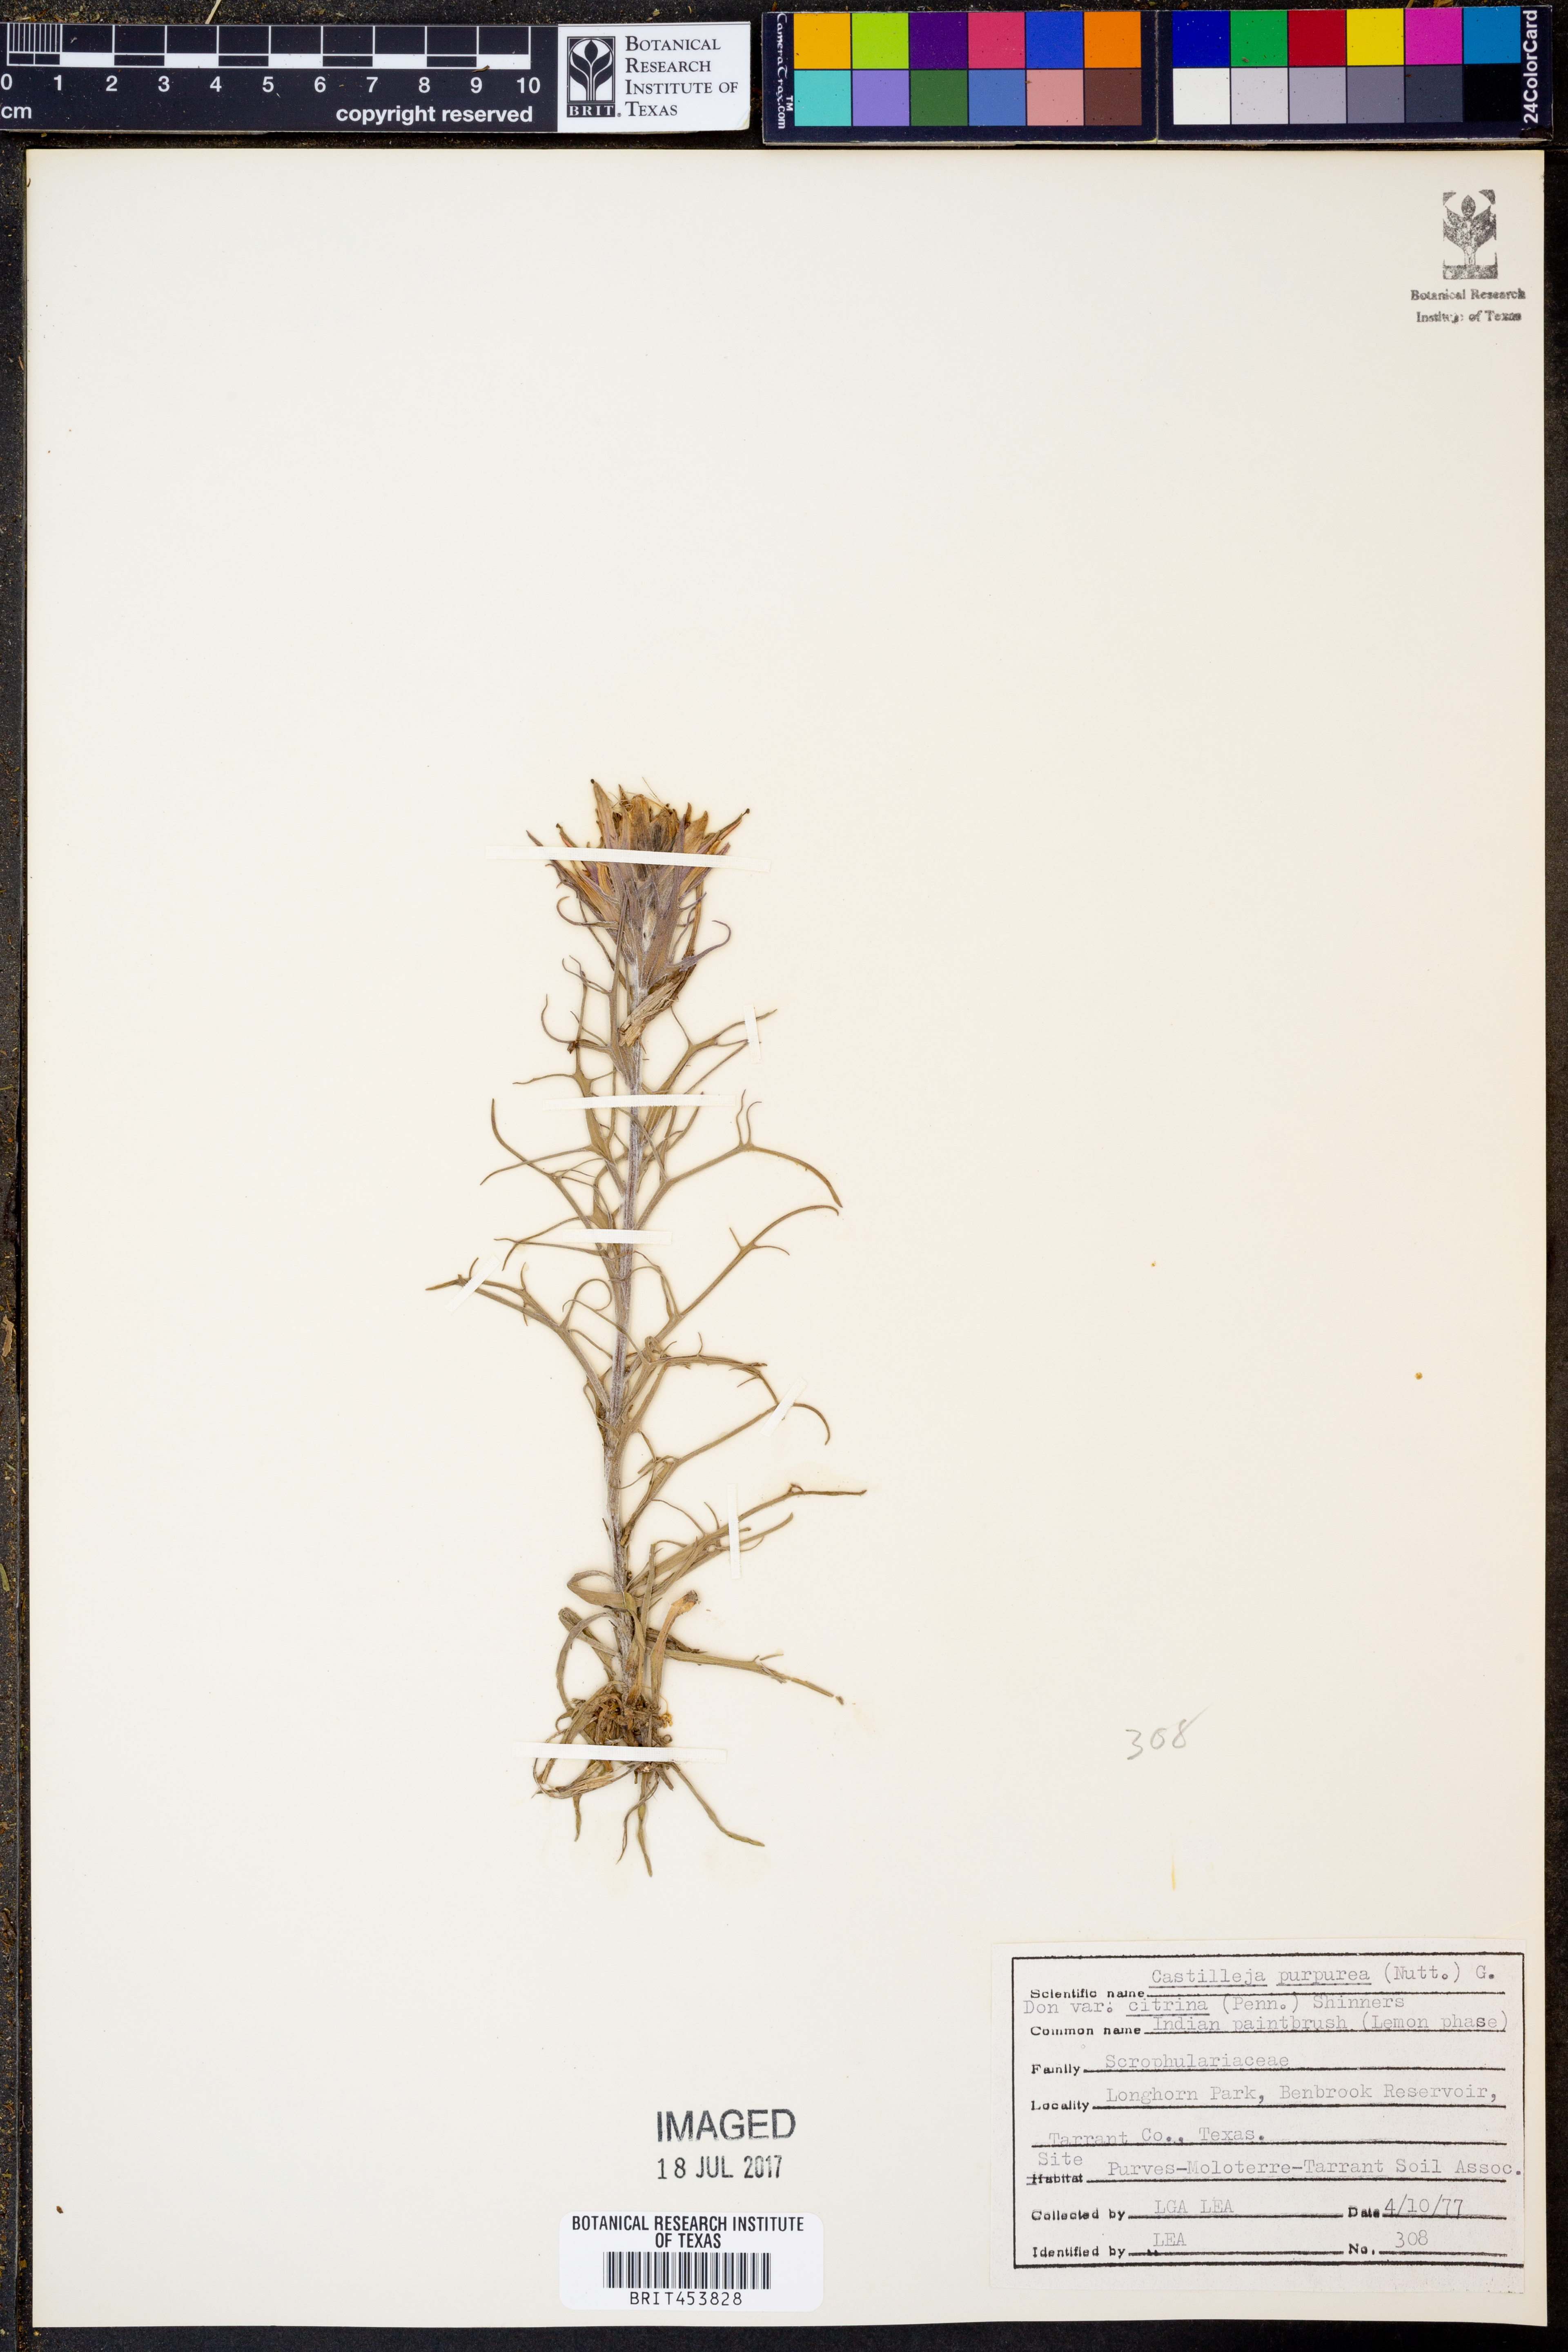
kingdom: Plantae
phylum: Tracheophyta
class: Magnoliopsida
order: Lamiales
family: Orobanchaceae
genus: Castilleja
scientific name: Castilleja citrina
